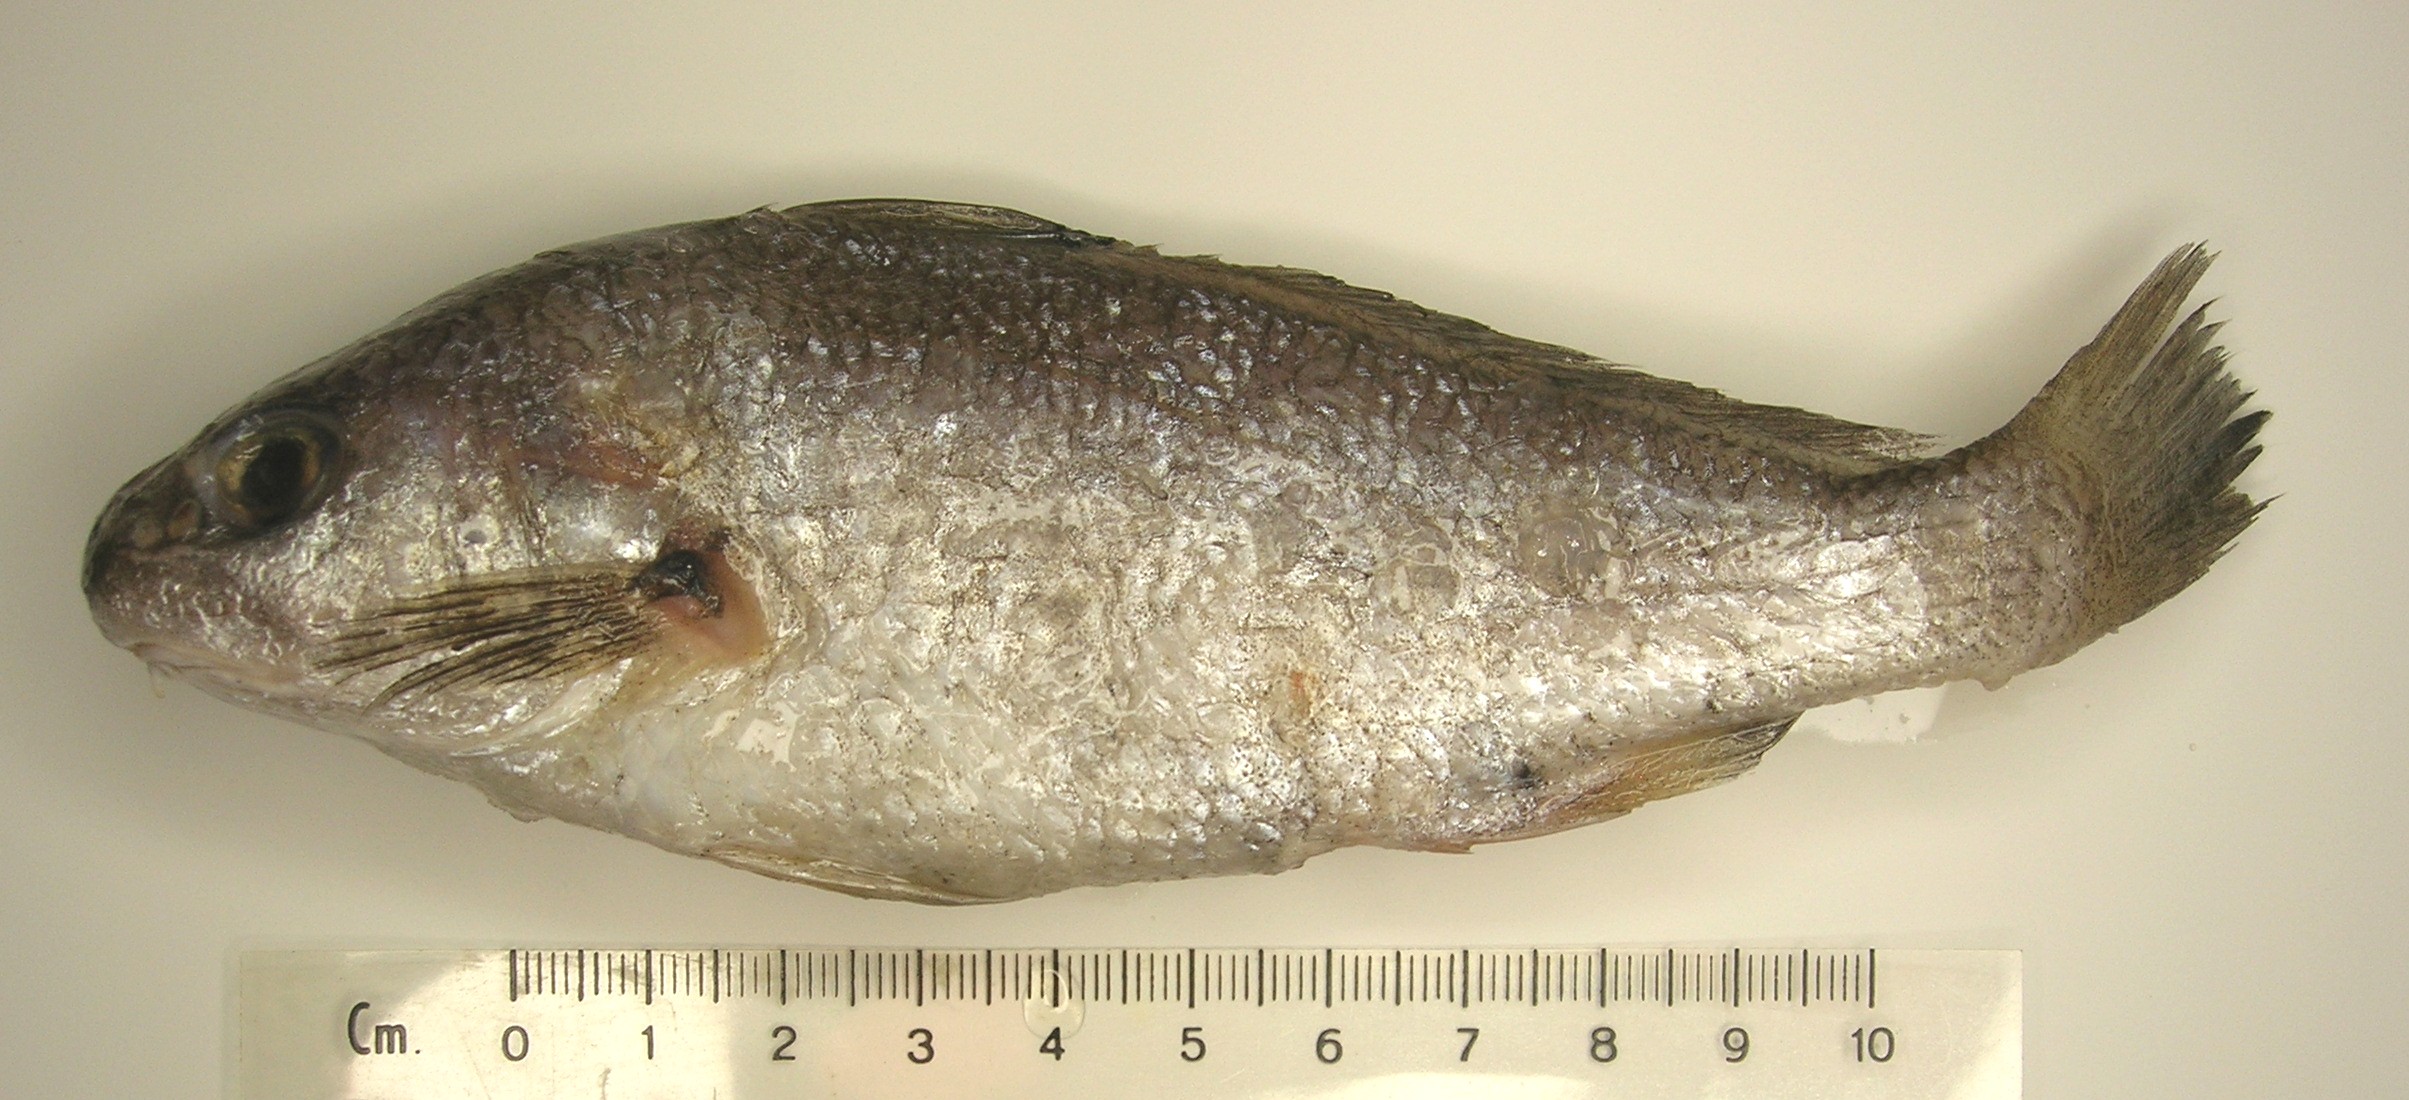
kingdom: Animalia
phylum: Chordata
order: Perciformes
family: Sciaenidae
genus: Johnius
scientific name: Johnius fuscolineatus
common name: Bellfish
